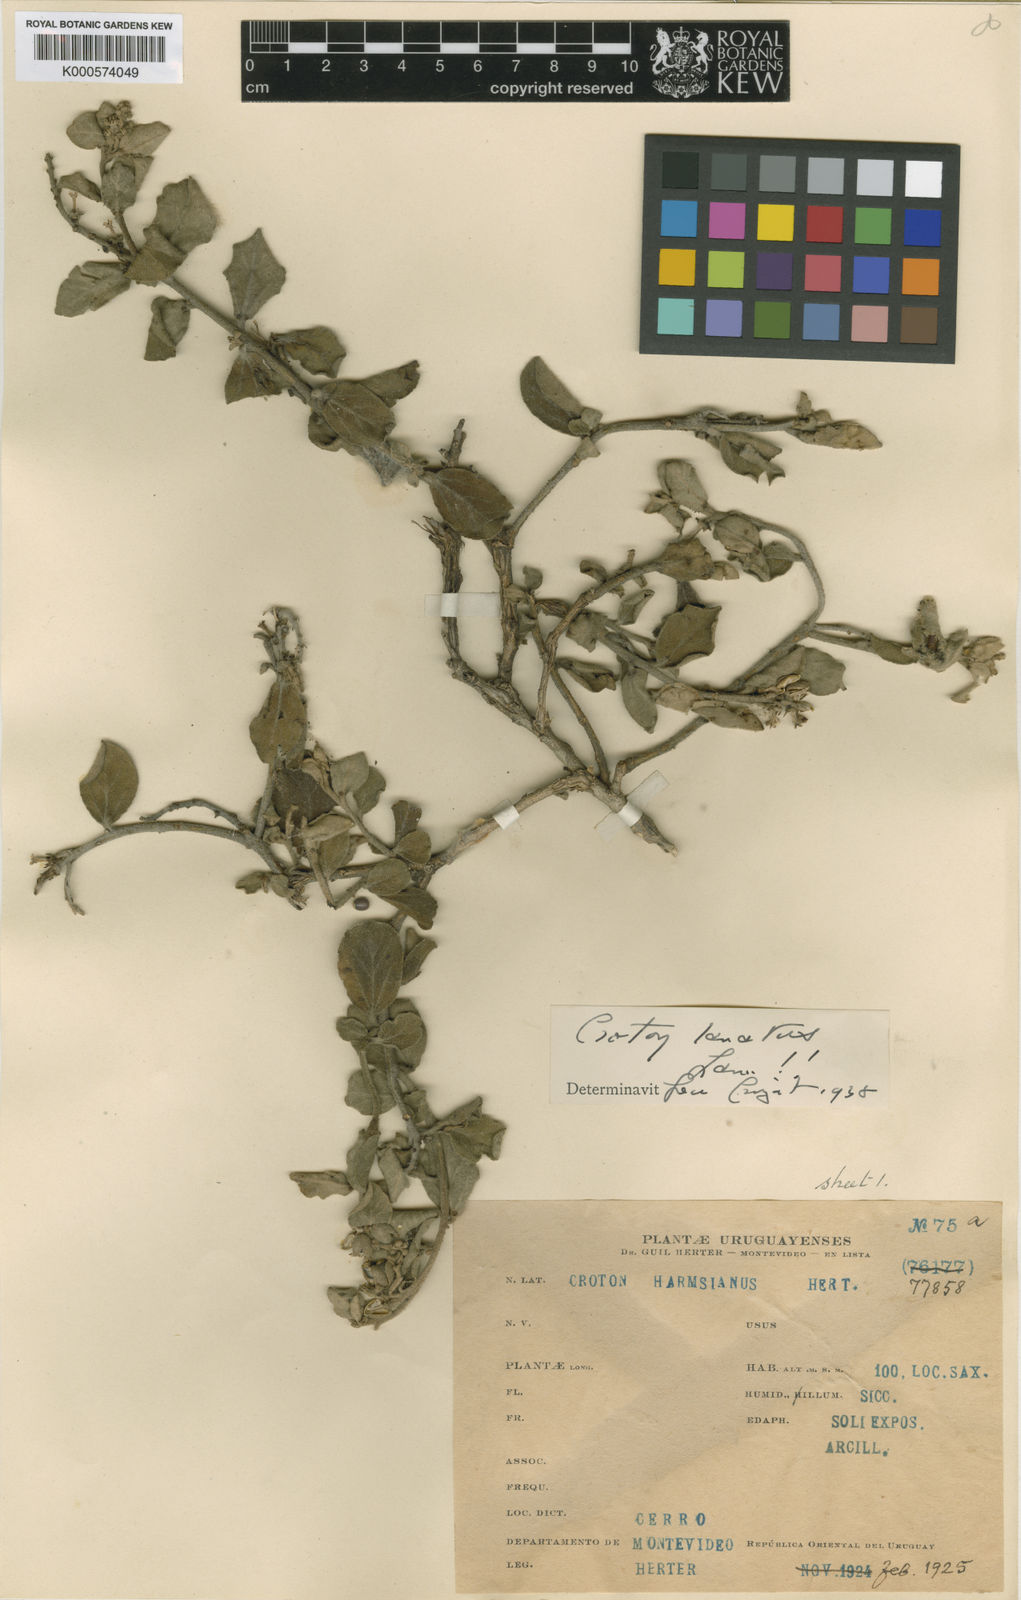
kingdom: Plantae
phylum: Tracheophyta
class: Magnoliopsida
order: Malpighiales
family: Euphorbiaceae
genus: Croton
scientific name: Croton harmsianus
